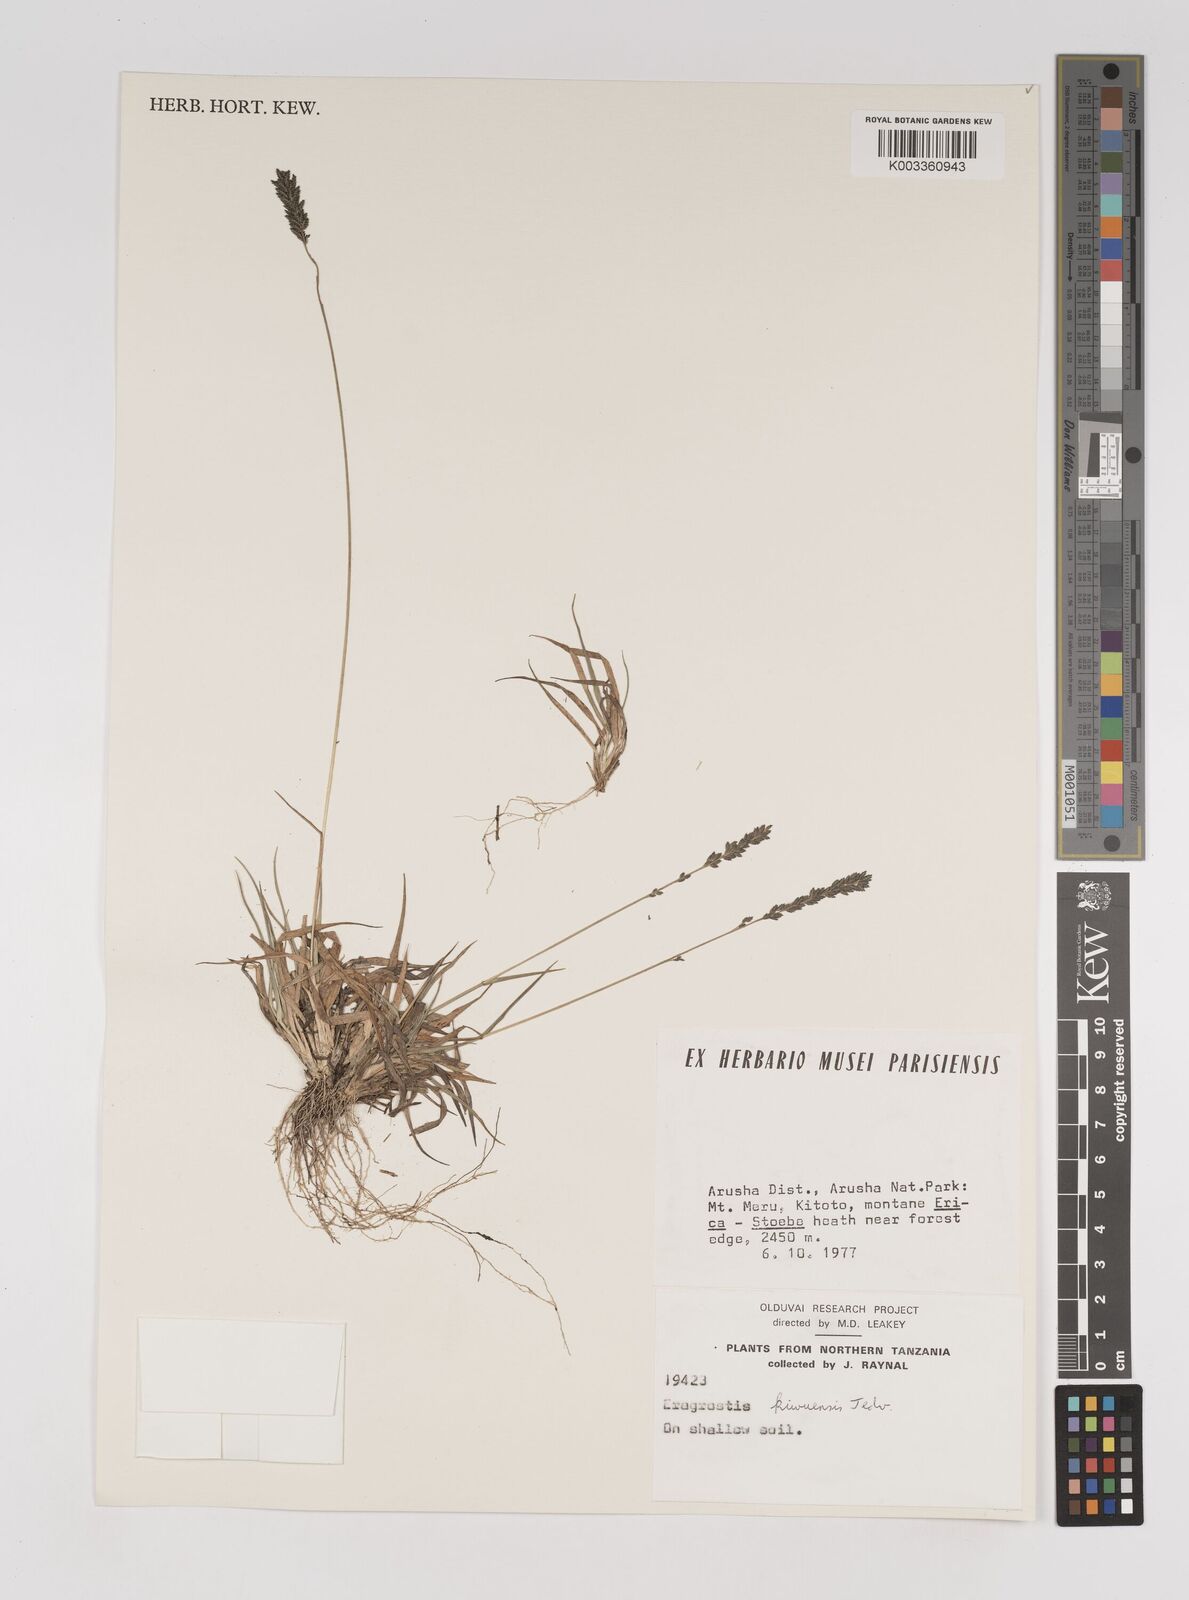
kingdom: Plantae
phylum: Tracheophyta
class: Liliopsida
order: Poales
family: Poaceae
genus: Eragrostis
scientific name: Eragrostis schweinfurthii
